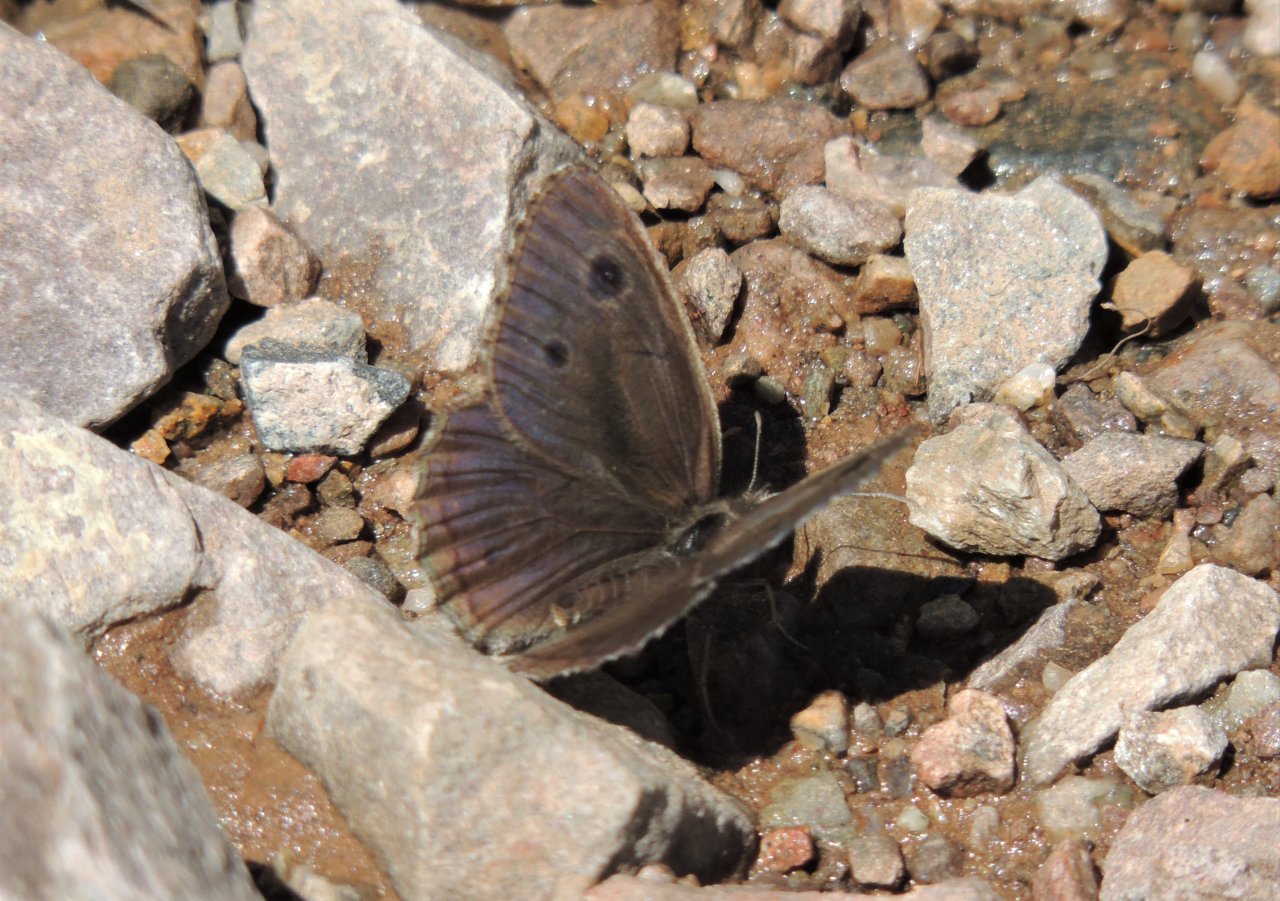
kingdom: Animalia
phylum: Arthropoda
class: Insecta
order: Lepidoptera
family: Nymphalidae
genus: Cercyonis
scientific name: Cercyonis oetus
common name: Small Wood-Nymph
